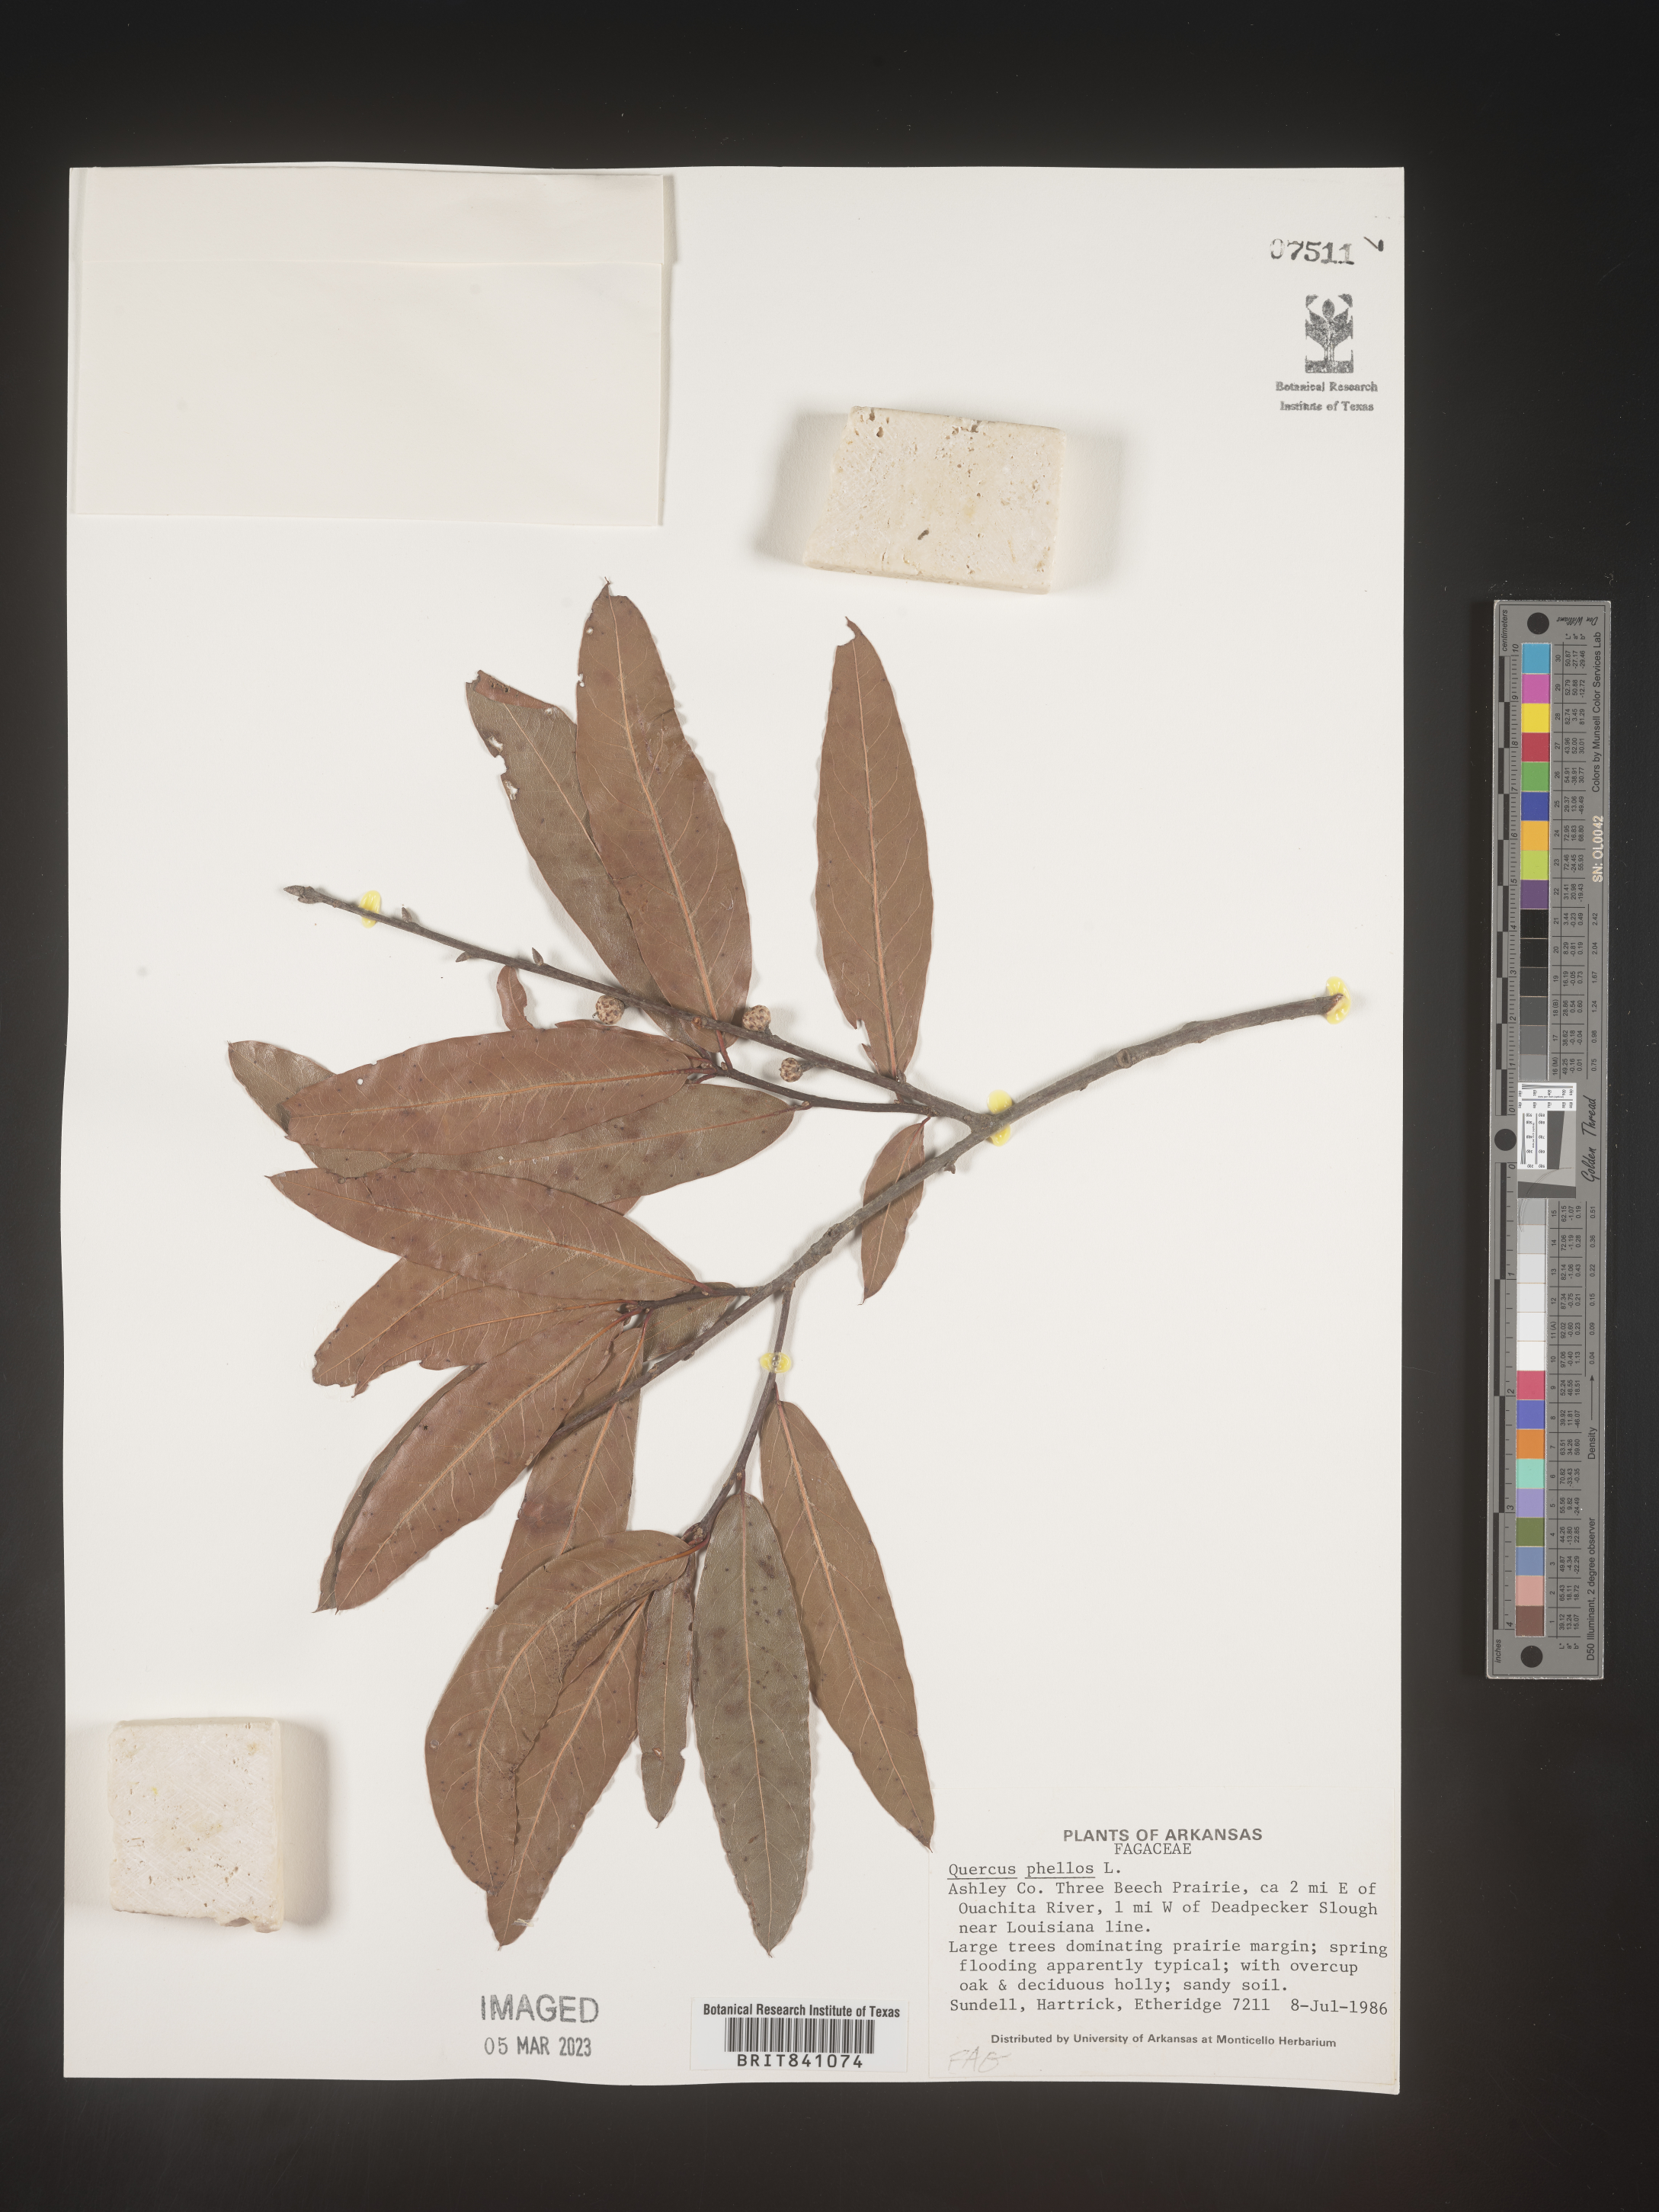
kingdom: Plantae
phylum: Tracheophyta
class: Magnoliopsida
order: Fagales
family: Fagaceae
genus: Quercus
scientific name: Quercus phellos
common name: Willow oak
